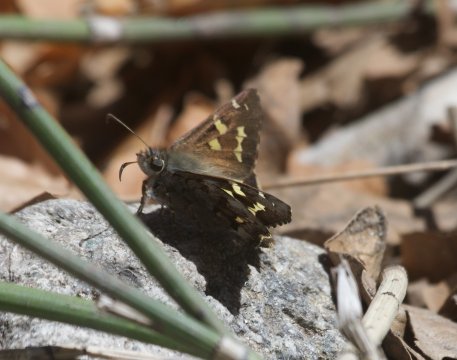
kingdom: Animalia
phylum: Arthropoda
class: Insecta
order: Lepidoptera
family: Hesperiidae
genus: Zestusa
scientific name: Zestusa dorus
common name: Short-tailed Skipper
